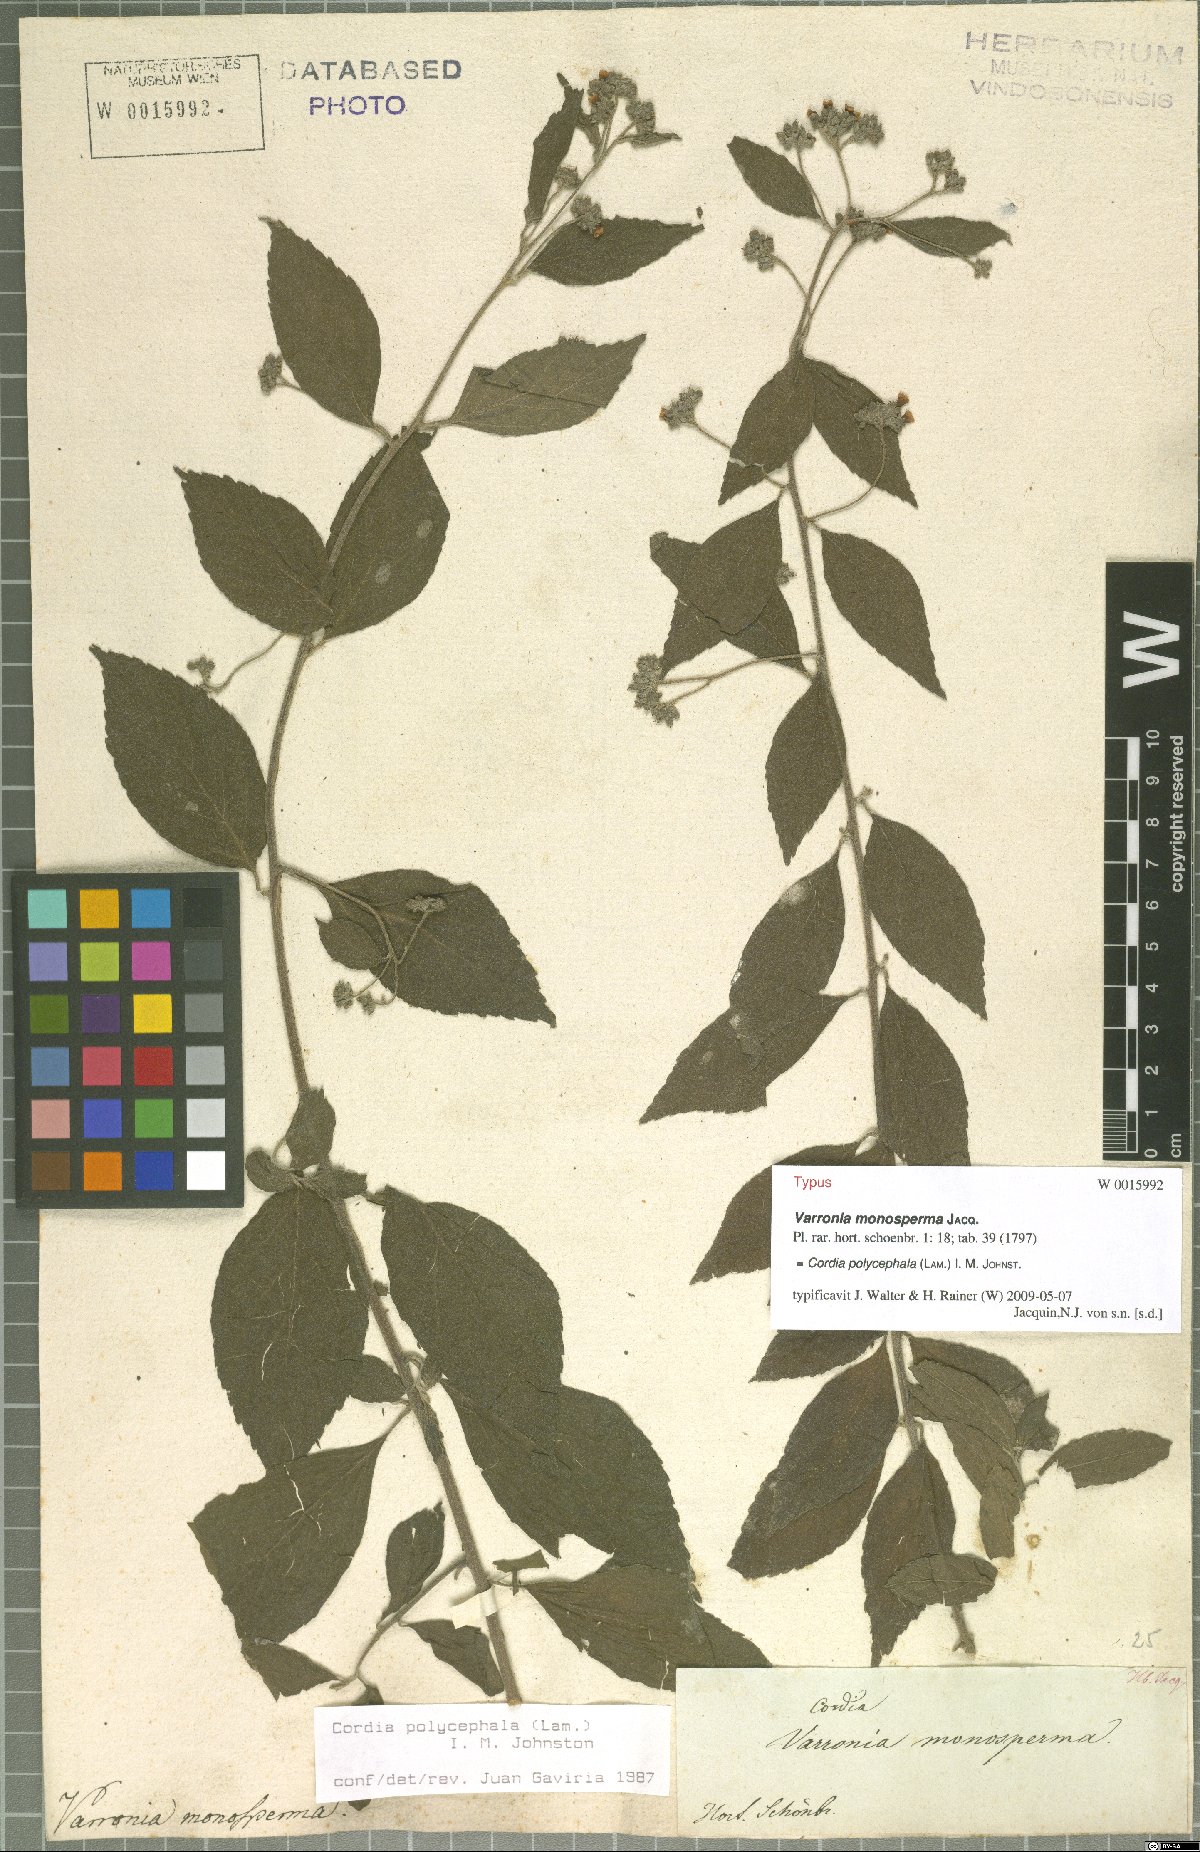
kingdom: Plantae
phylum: Tracheophyta
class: Magnoliopsida
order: Boraginales
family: Cordiaceae
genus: Varronia
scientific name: Varronia polycephala
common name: Black-sage
